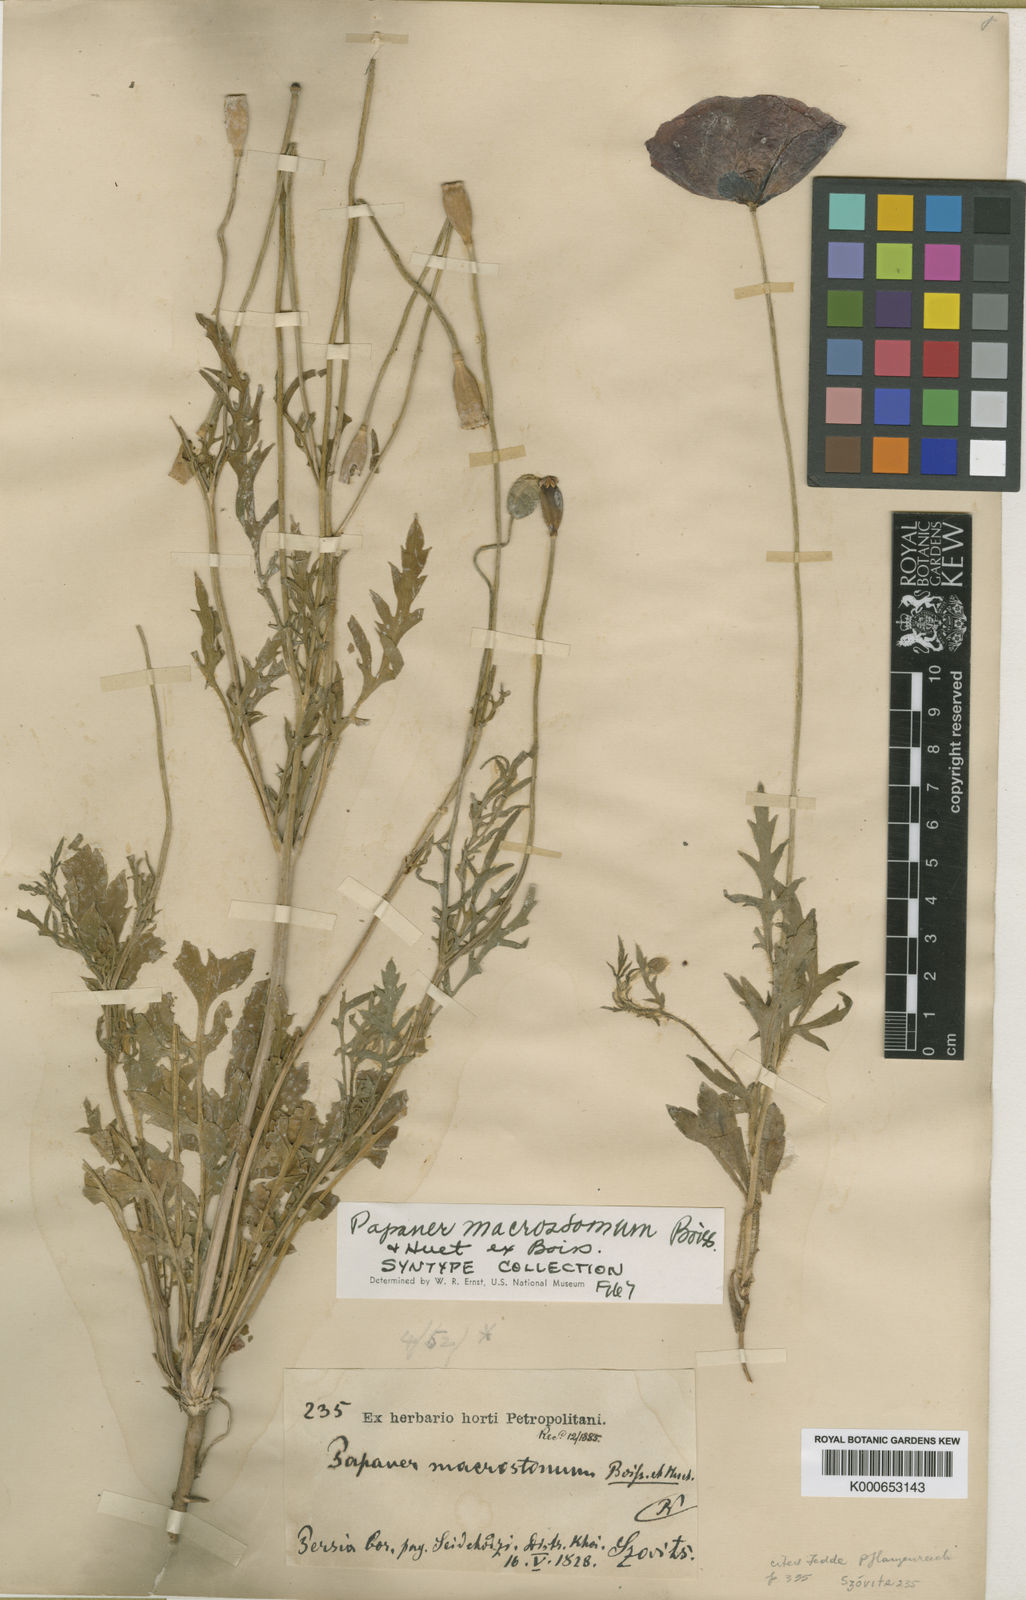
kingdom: Plantae
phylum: Tracheophyta
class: Magnoliopsida
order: Ranunculales
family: Papaveraceae
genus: Papaver
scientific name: Papaver macrostomum
